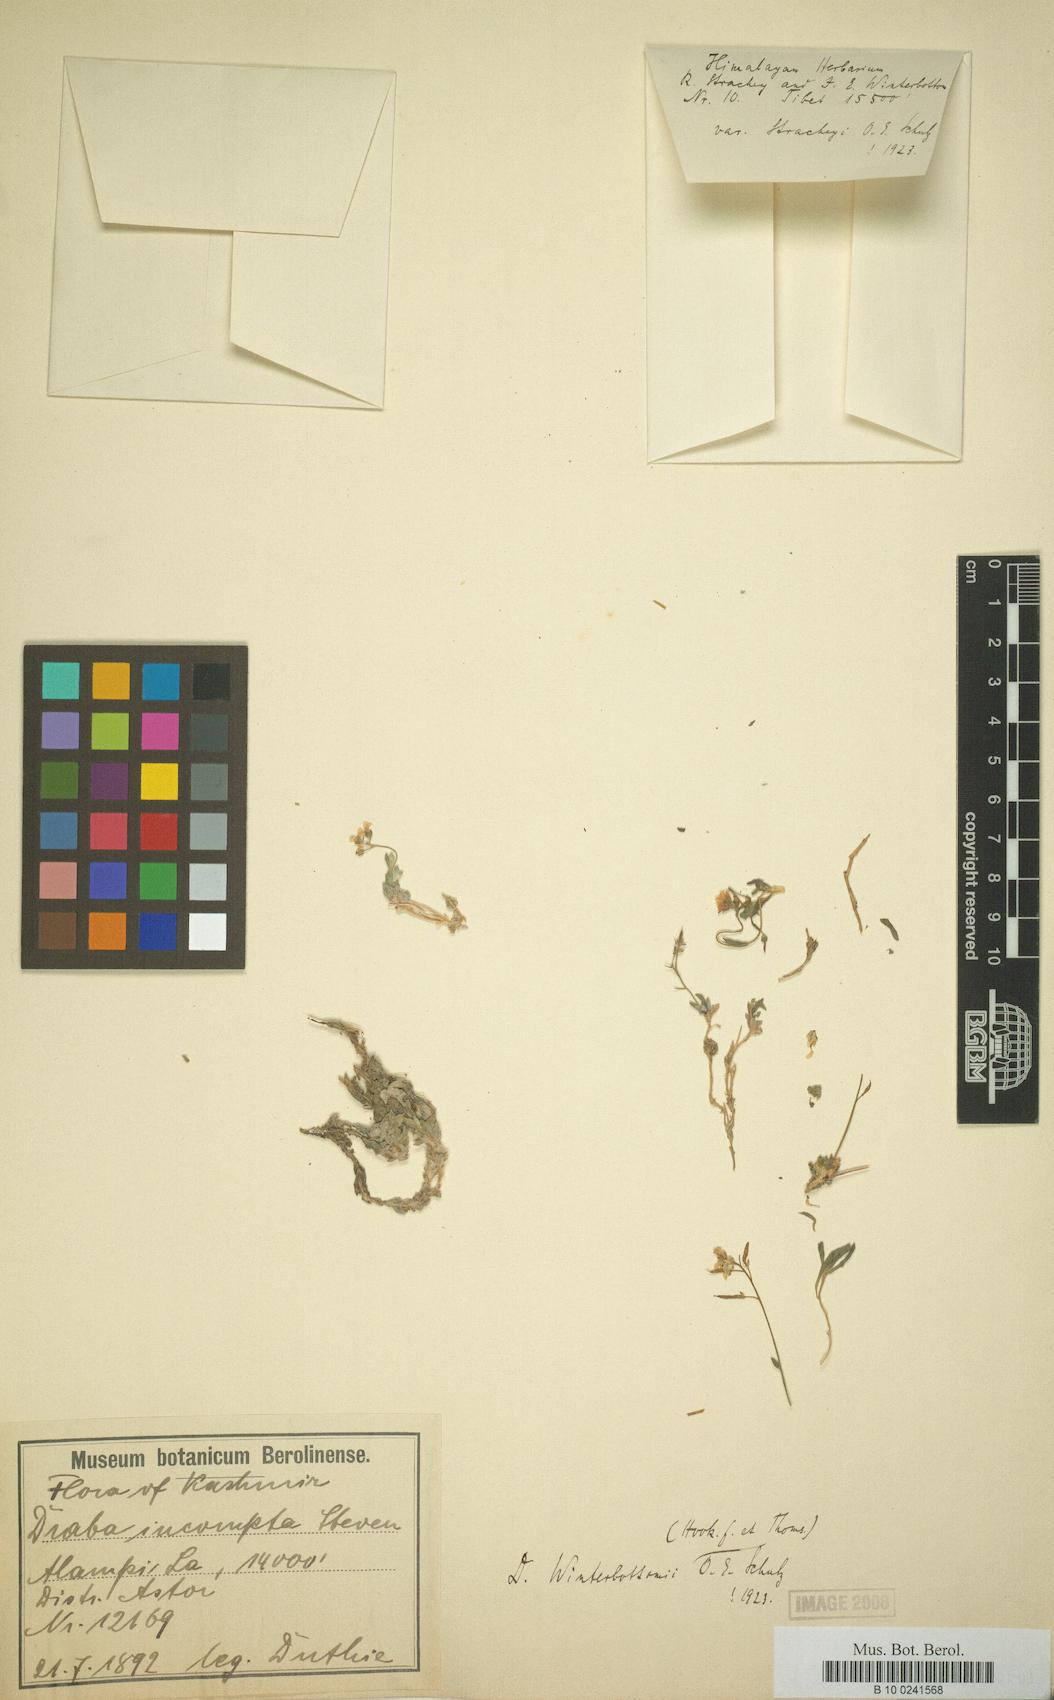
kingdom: Plantae
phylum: Tracheophyta
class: Magnoliopsida
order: Brassicales
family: Brassicaceae
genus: Draba
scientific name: Draba winterbottomii
